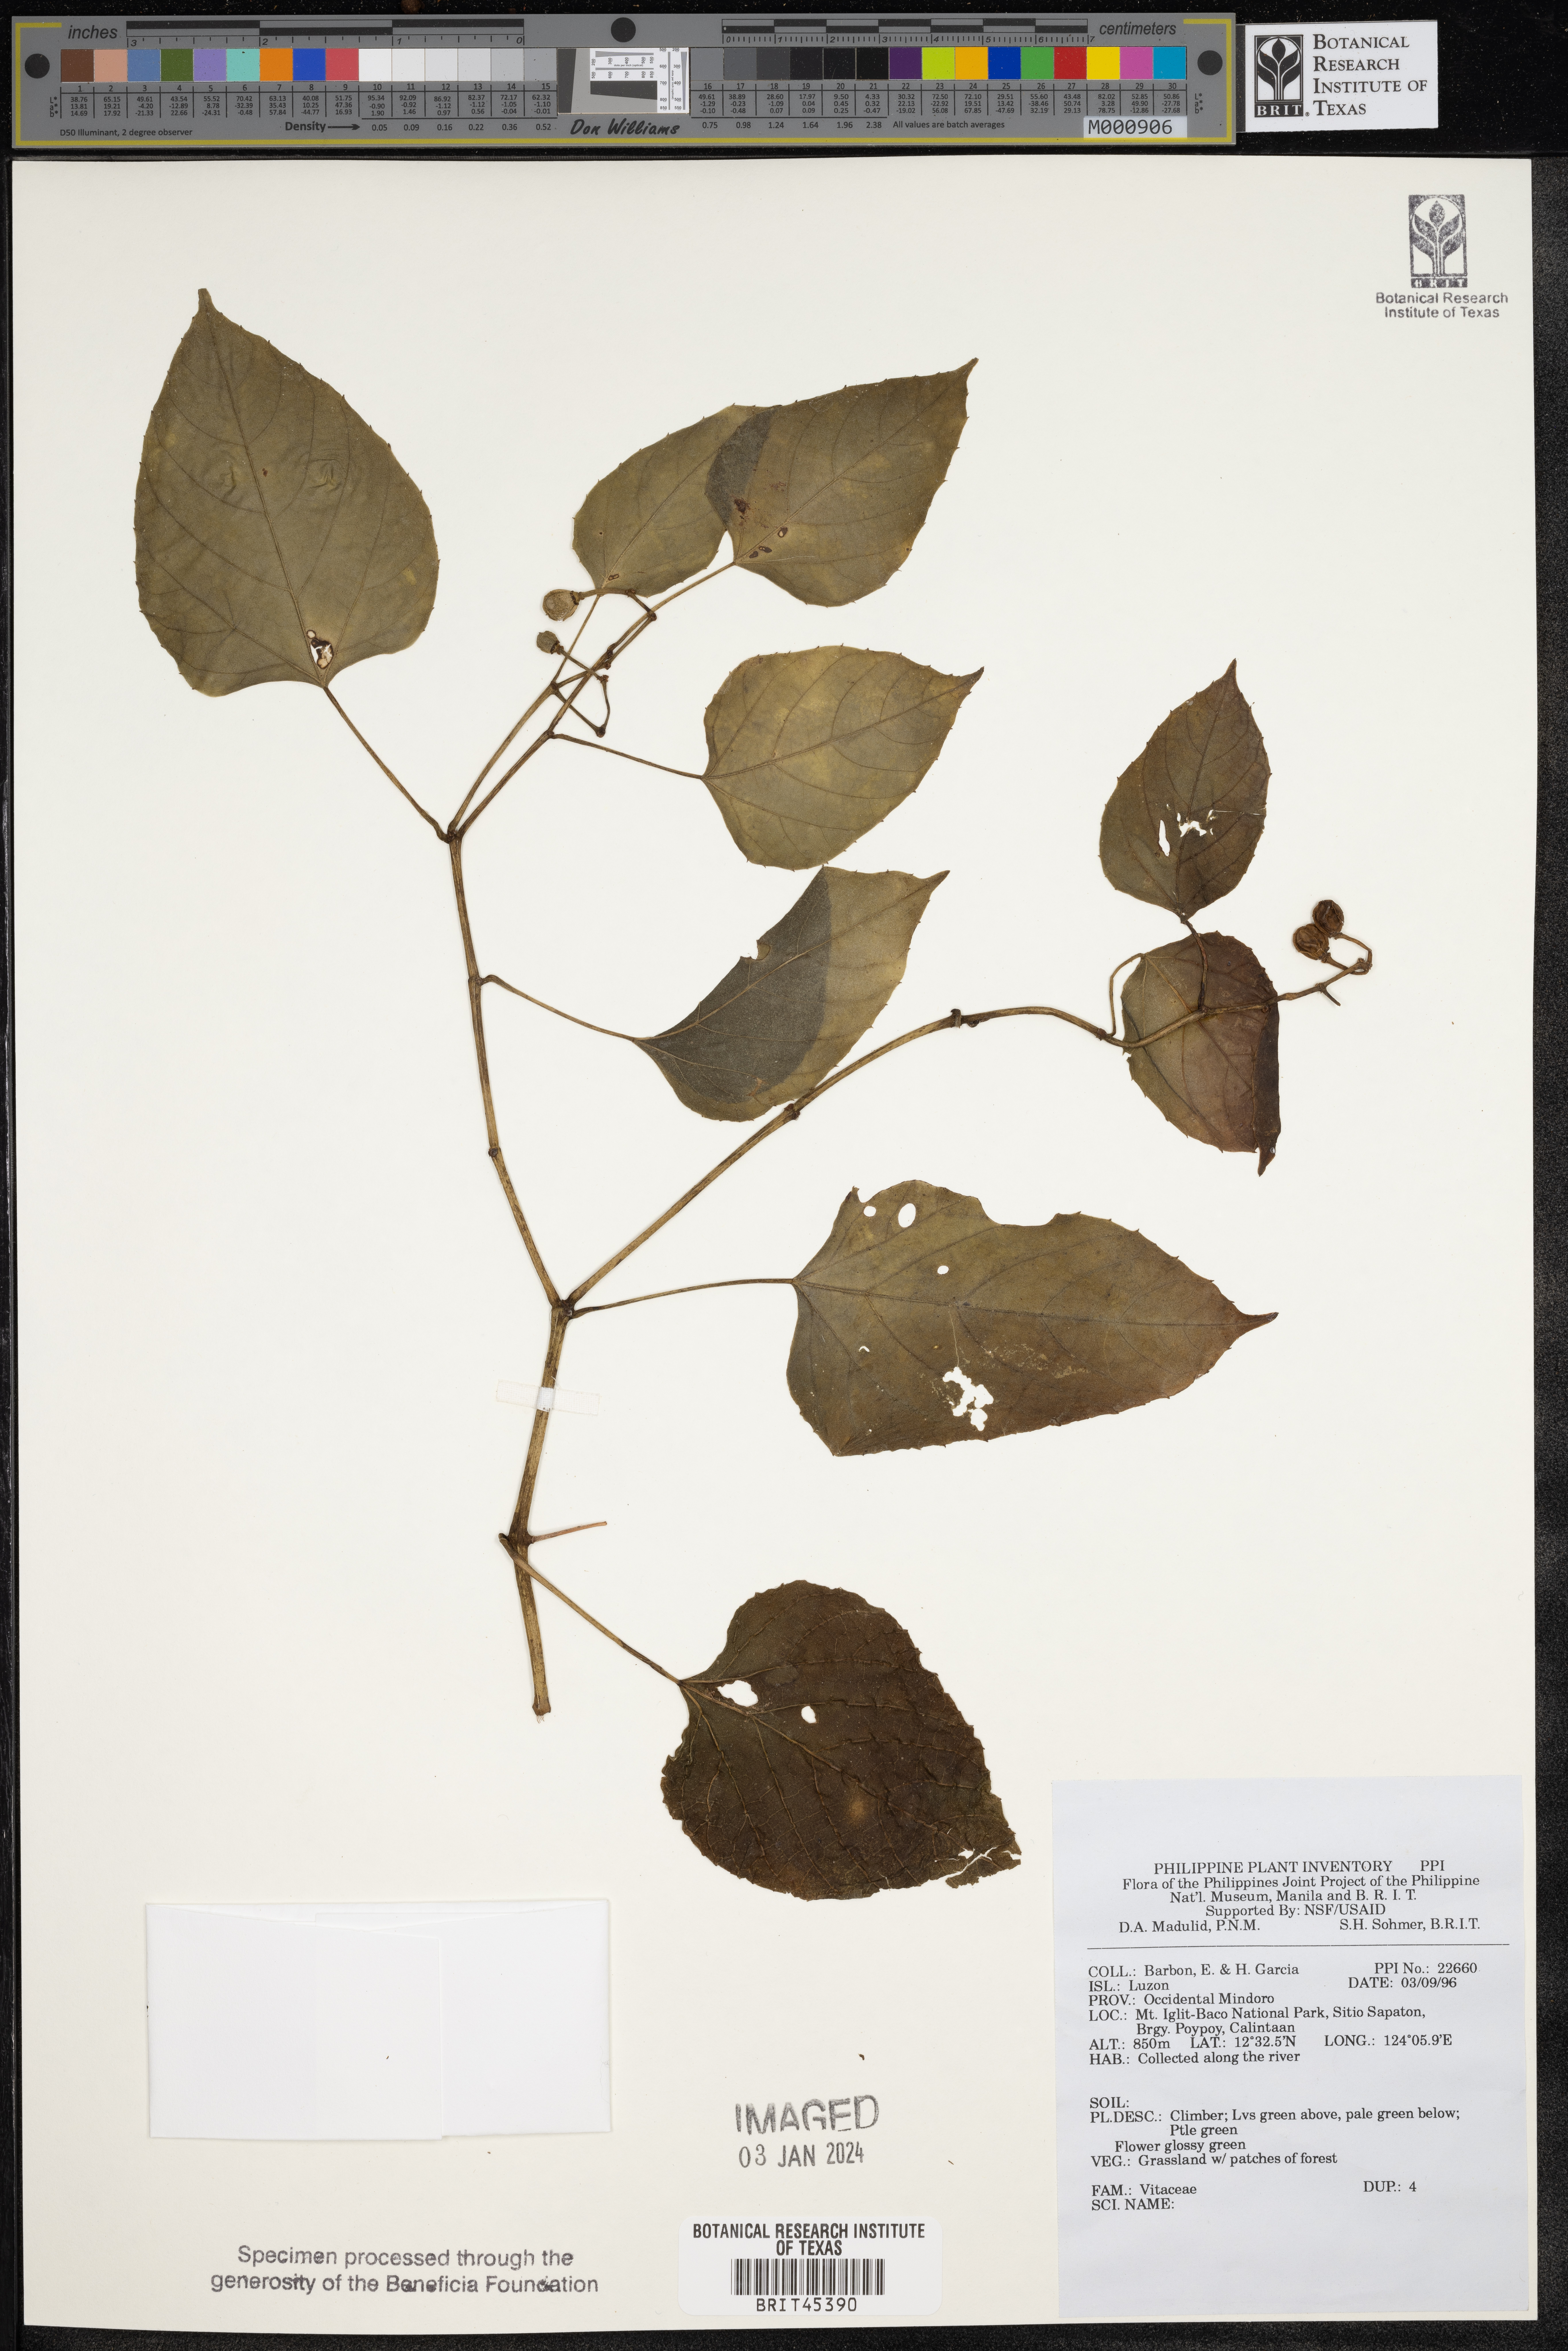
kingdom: Plantae
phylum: Tracheophyta
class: Magnoliopsida
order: Vitales
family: Vitaceae
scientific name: Vitaceae
